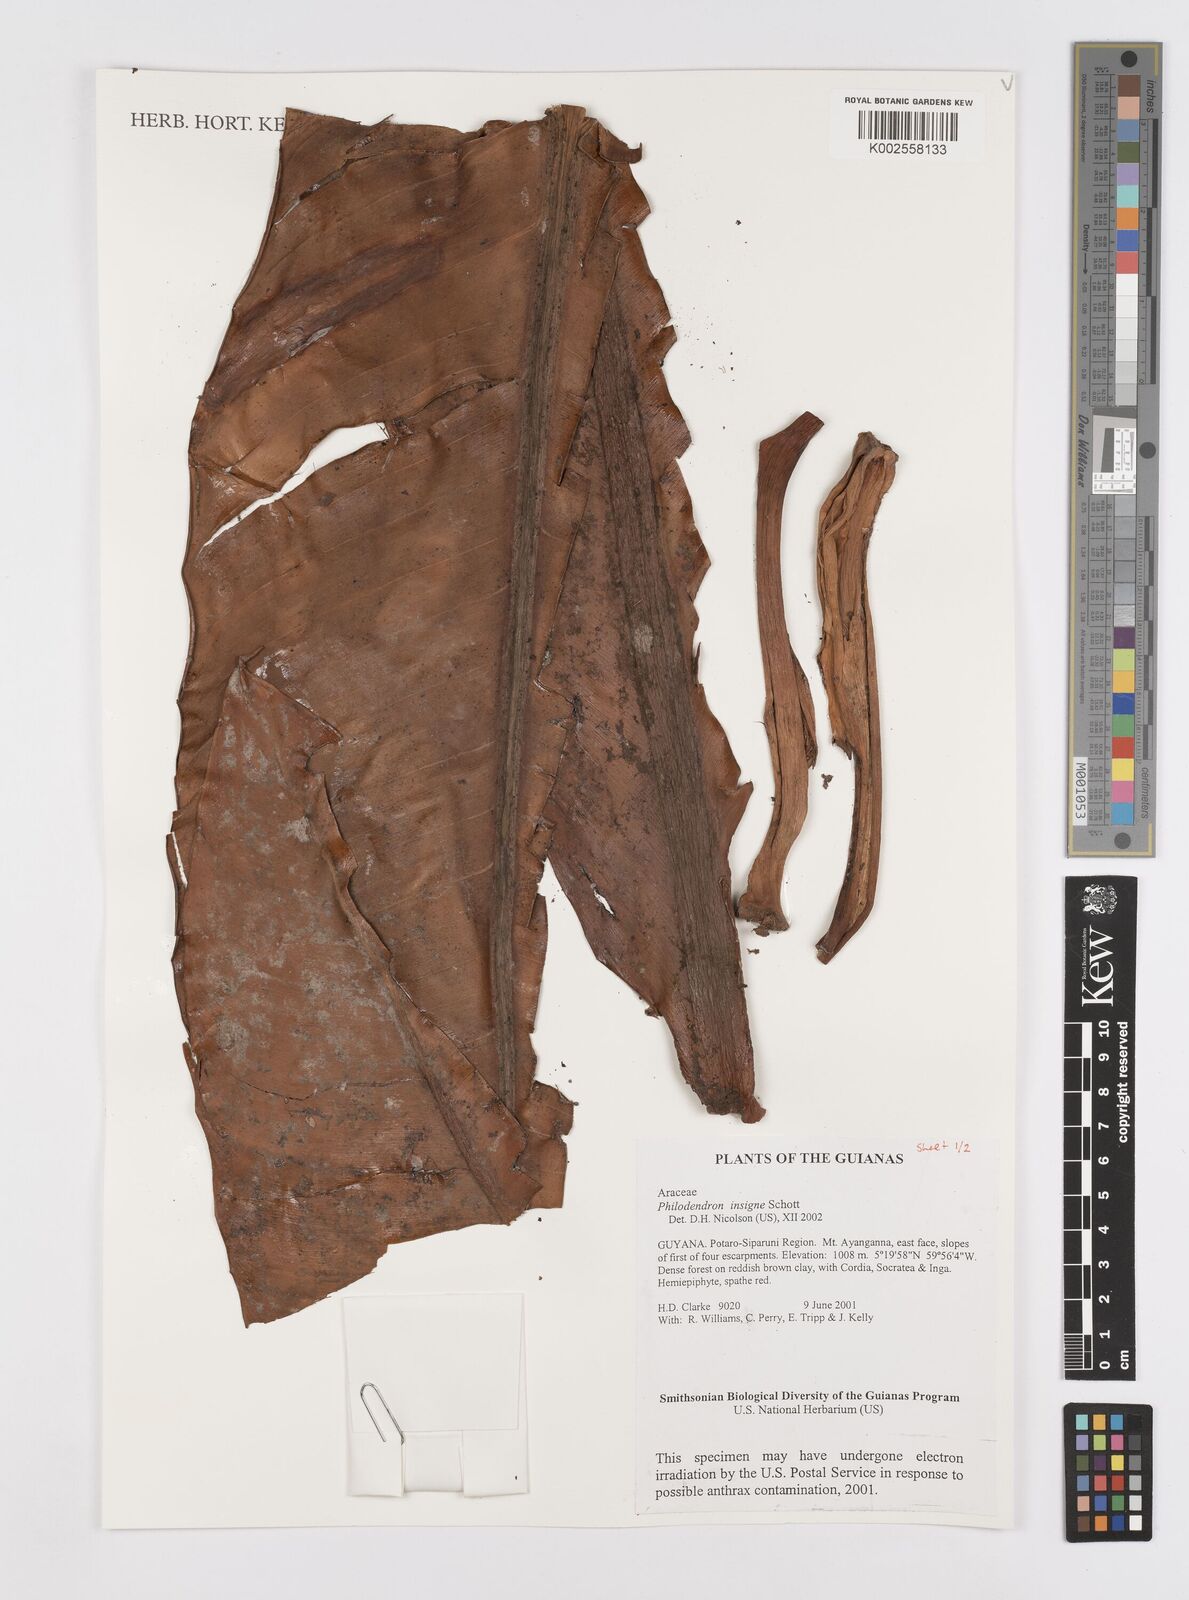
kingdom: Plantae
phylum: Tracheophyta
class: Liliopsida
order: Alismatales
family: Araceae
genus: Philodendron
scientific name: Philodendron insigne
